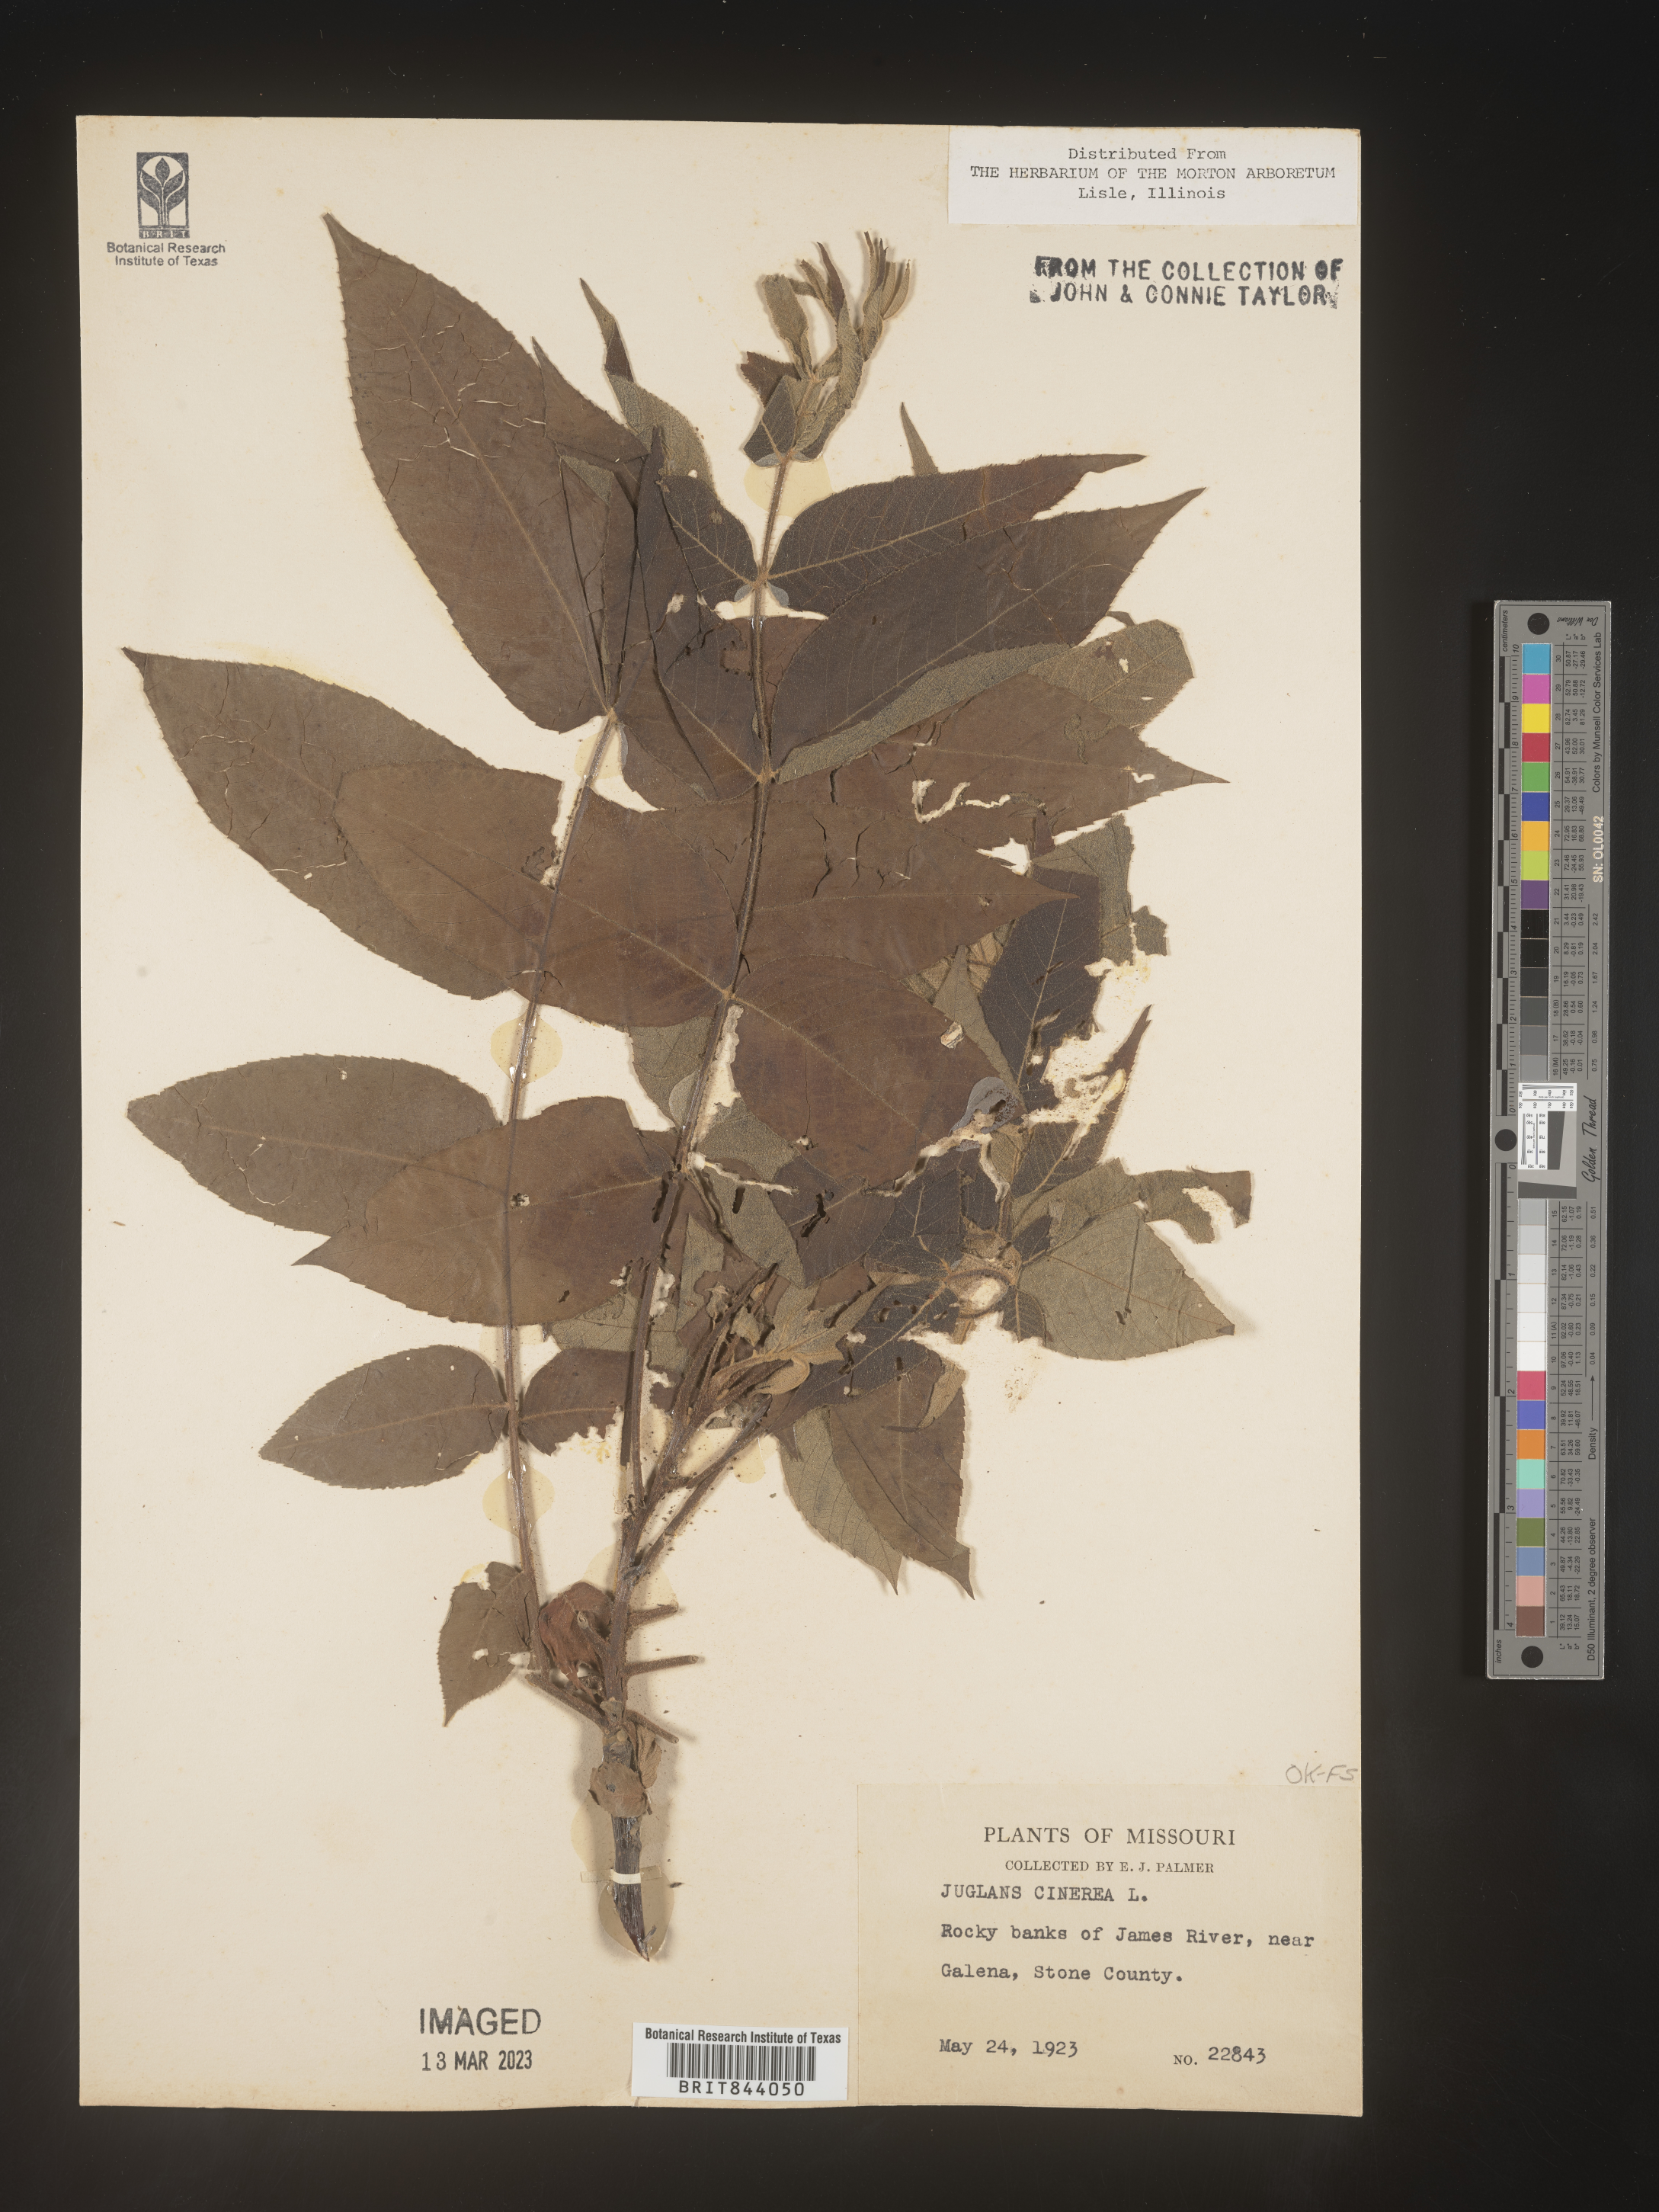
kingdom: Plantae
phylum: Tracheophyta
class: Magnoliopsida
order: Fagales
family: Juglandaceae
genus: Juglans
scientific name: Juglans cinerea
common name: Butternut
